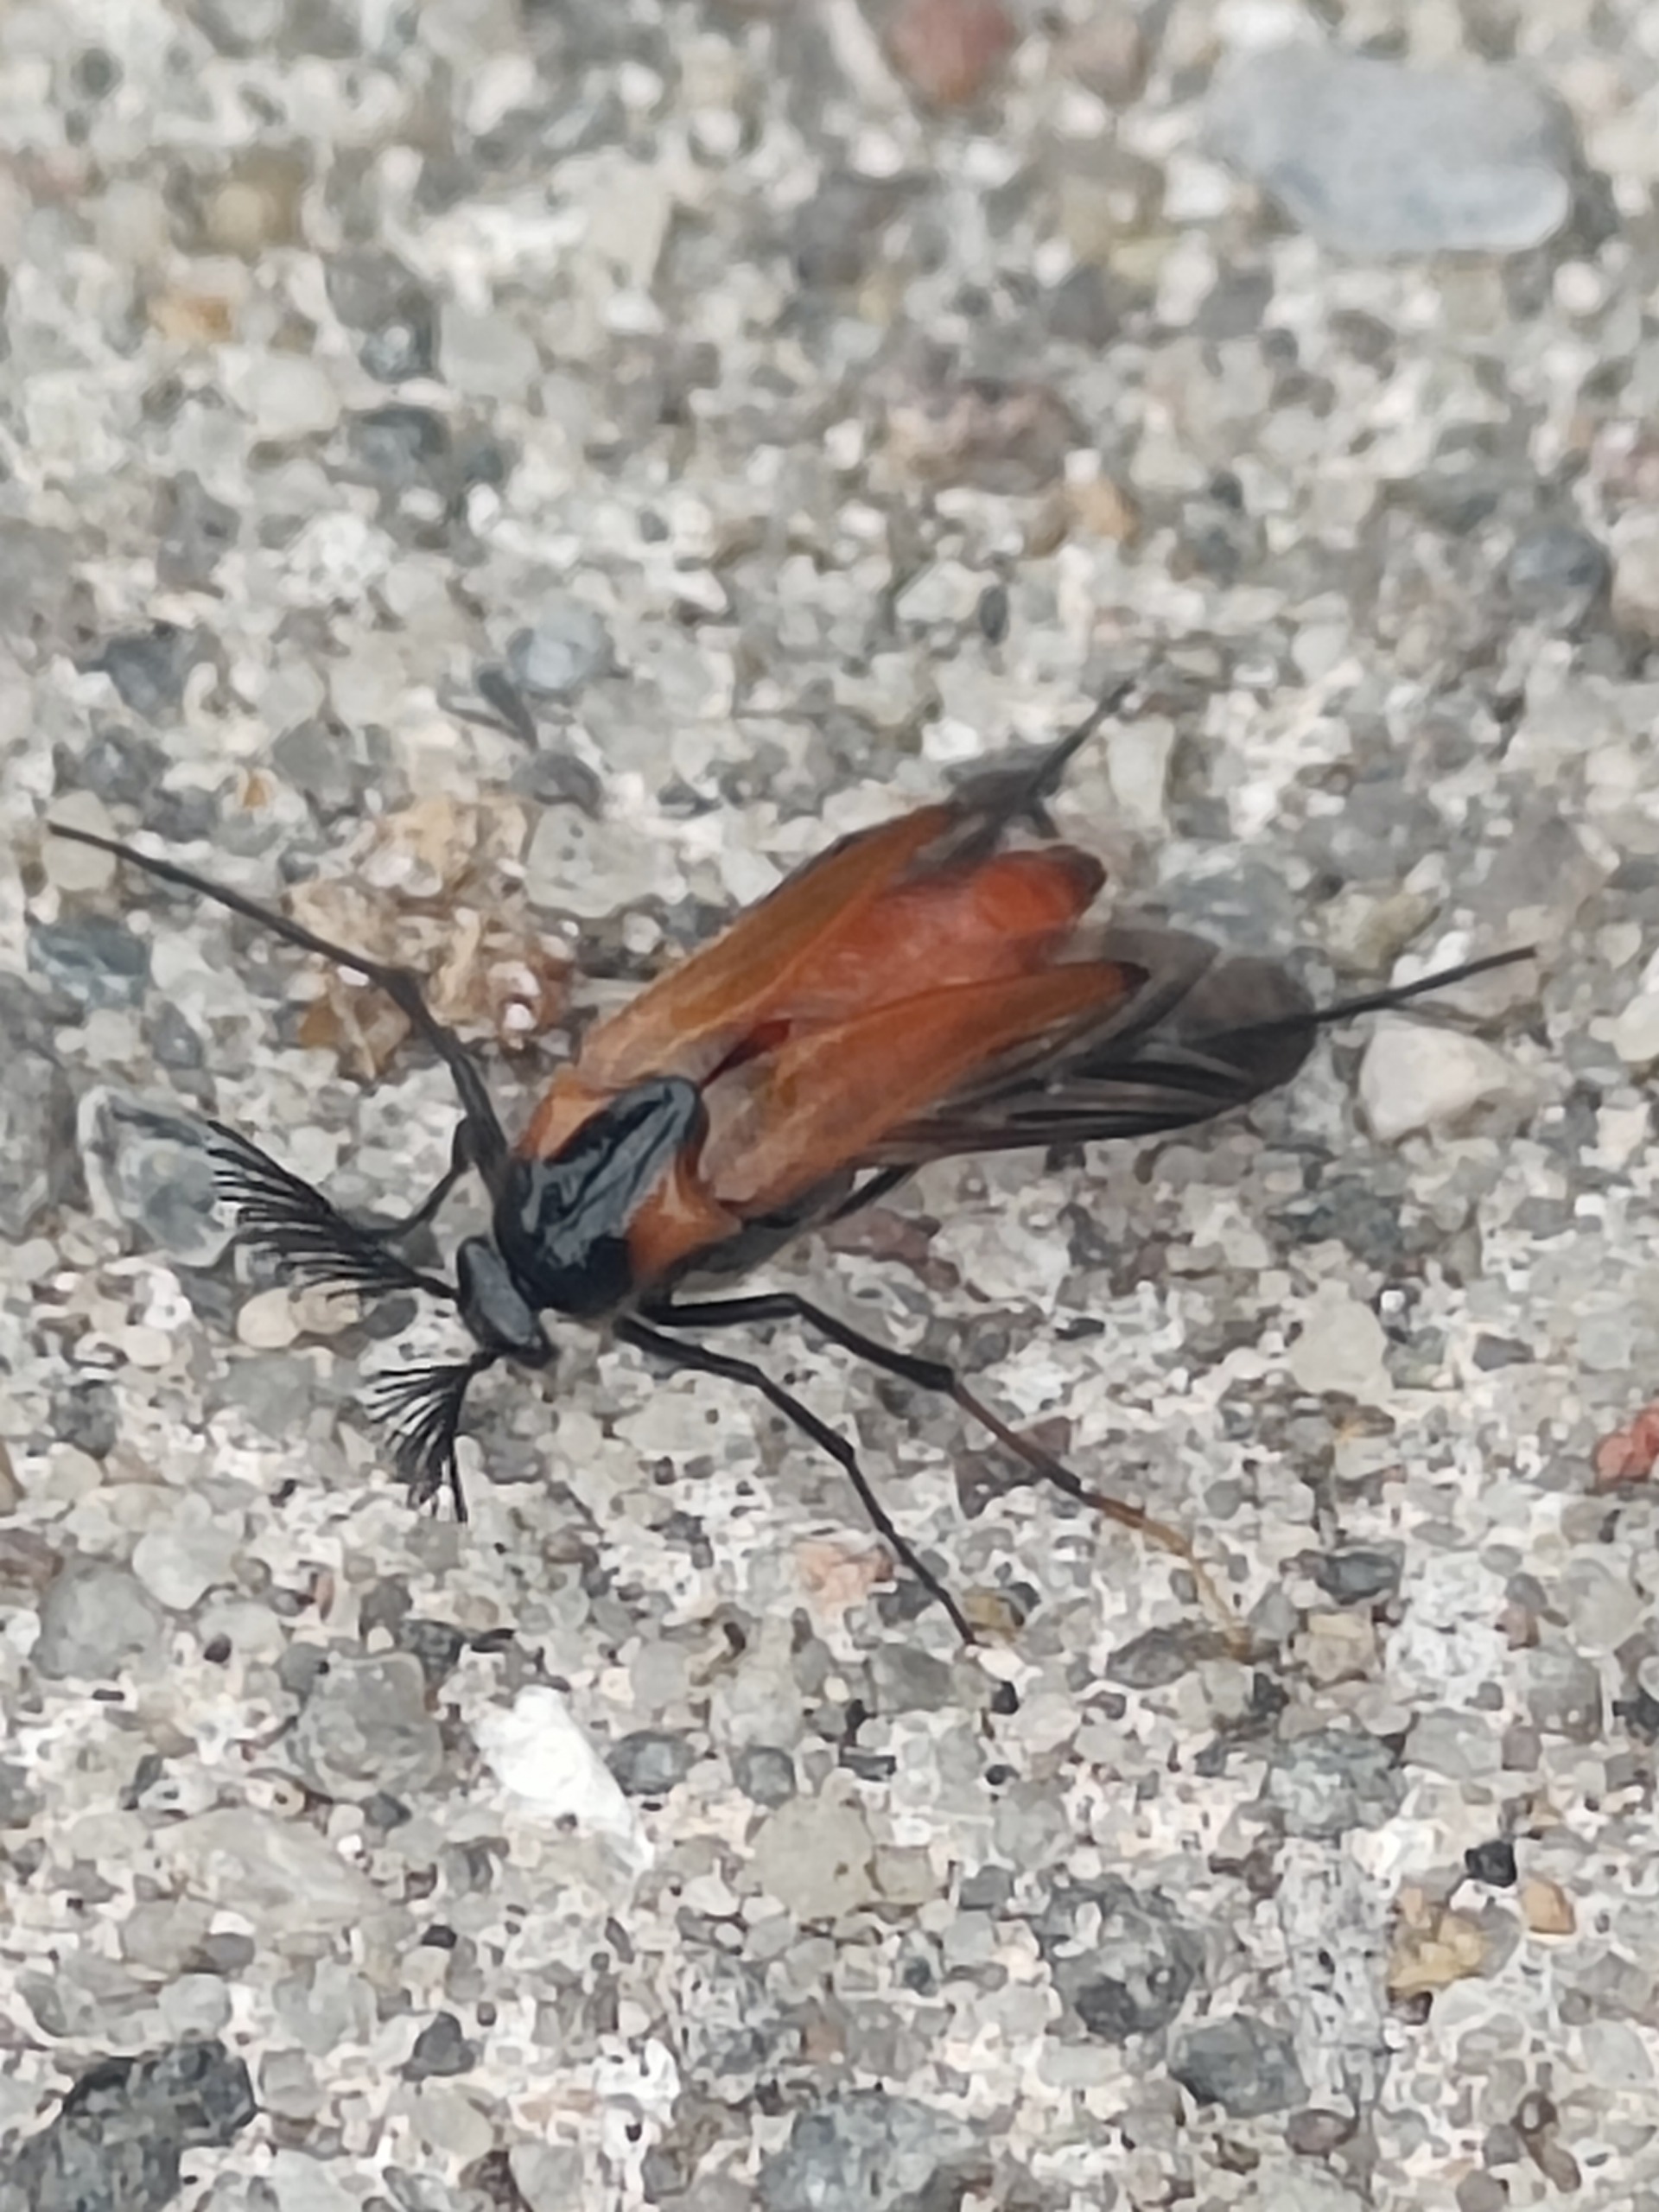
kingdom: Animalia
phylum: Arthropoda
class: Insecta
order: Coleoptera
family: Ripiphoridae
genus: Metoecus
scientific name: Metoecus paradoxus
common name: Hvepsesnyltebille
